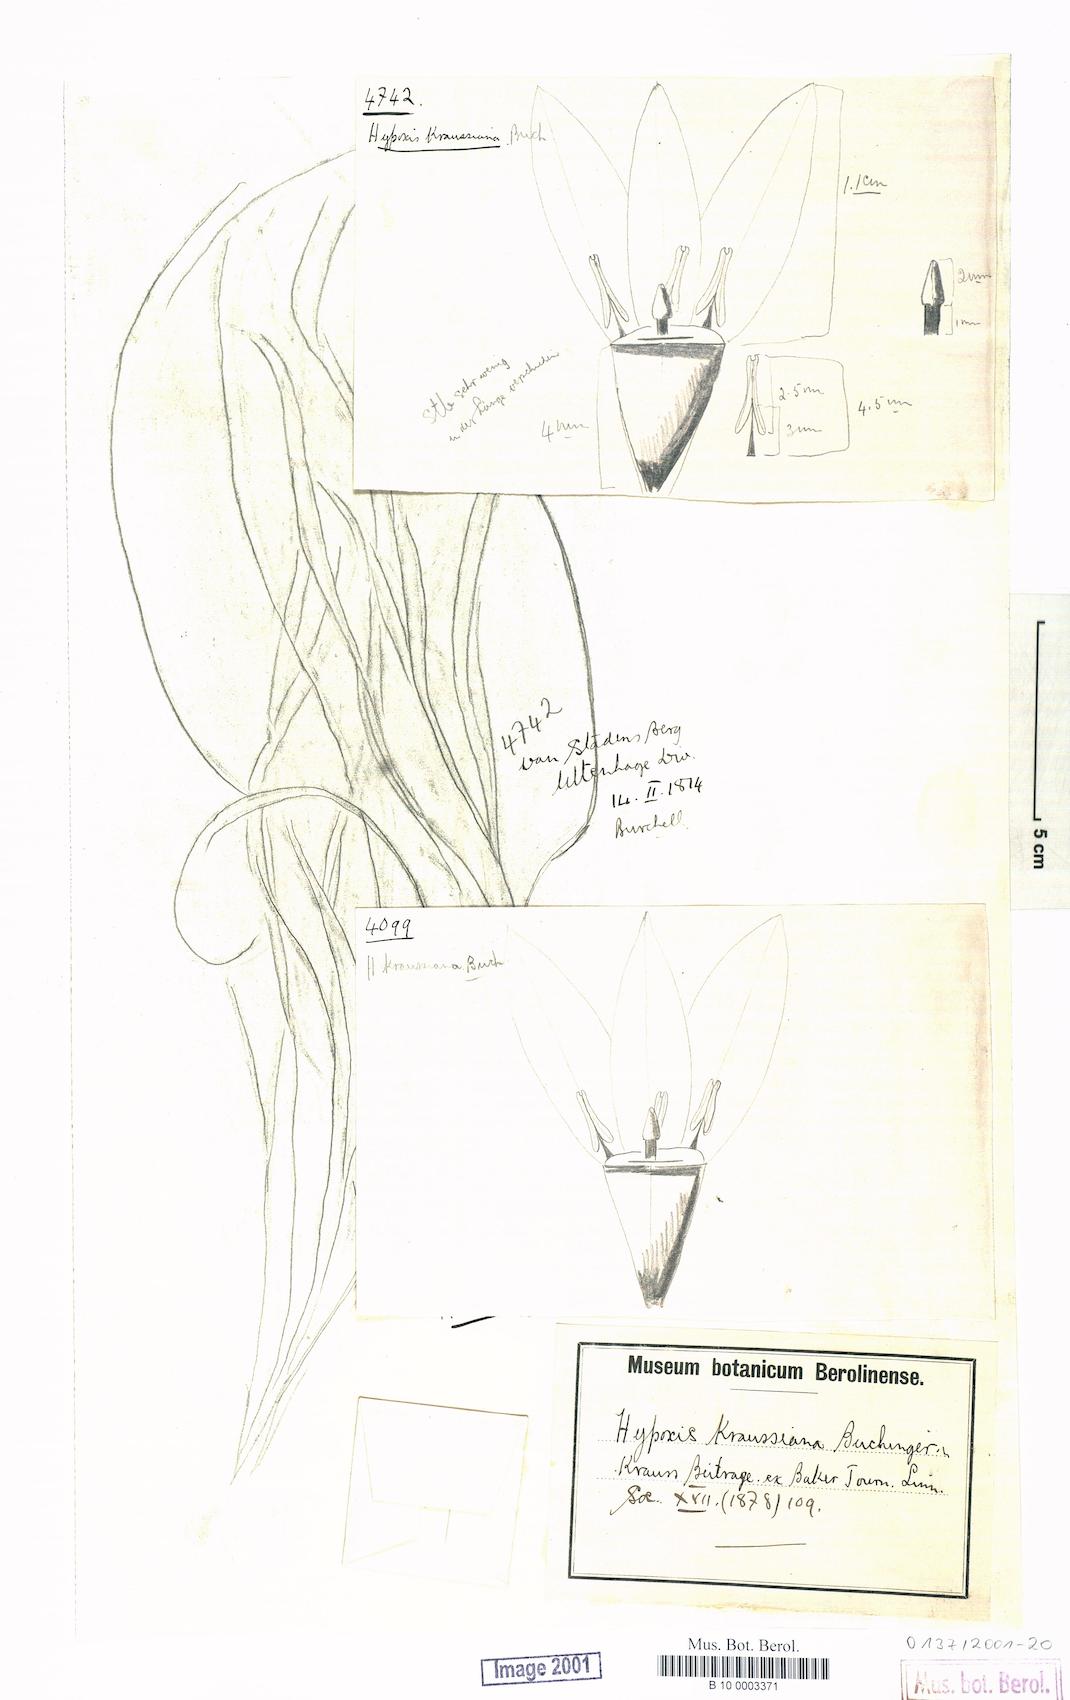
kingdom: Plantae
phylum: Tracheophyta
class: Liliopsida
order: Asparagales
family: Hypoxidaceae
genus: Hypoxis
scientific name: Hypoxis kraussiana
